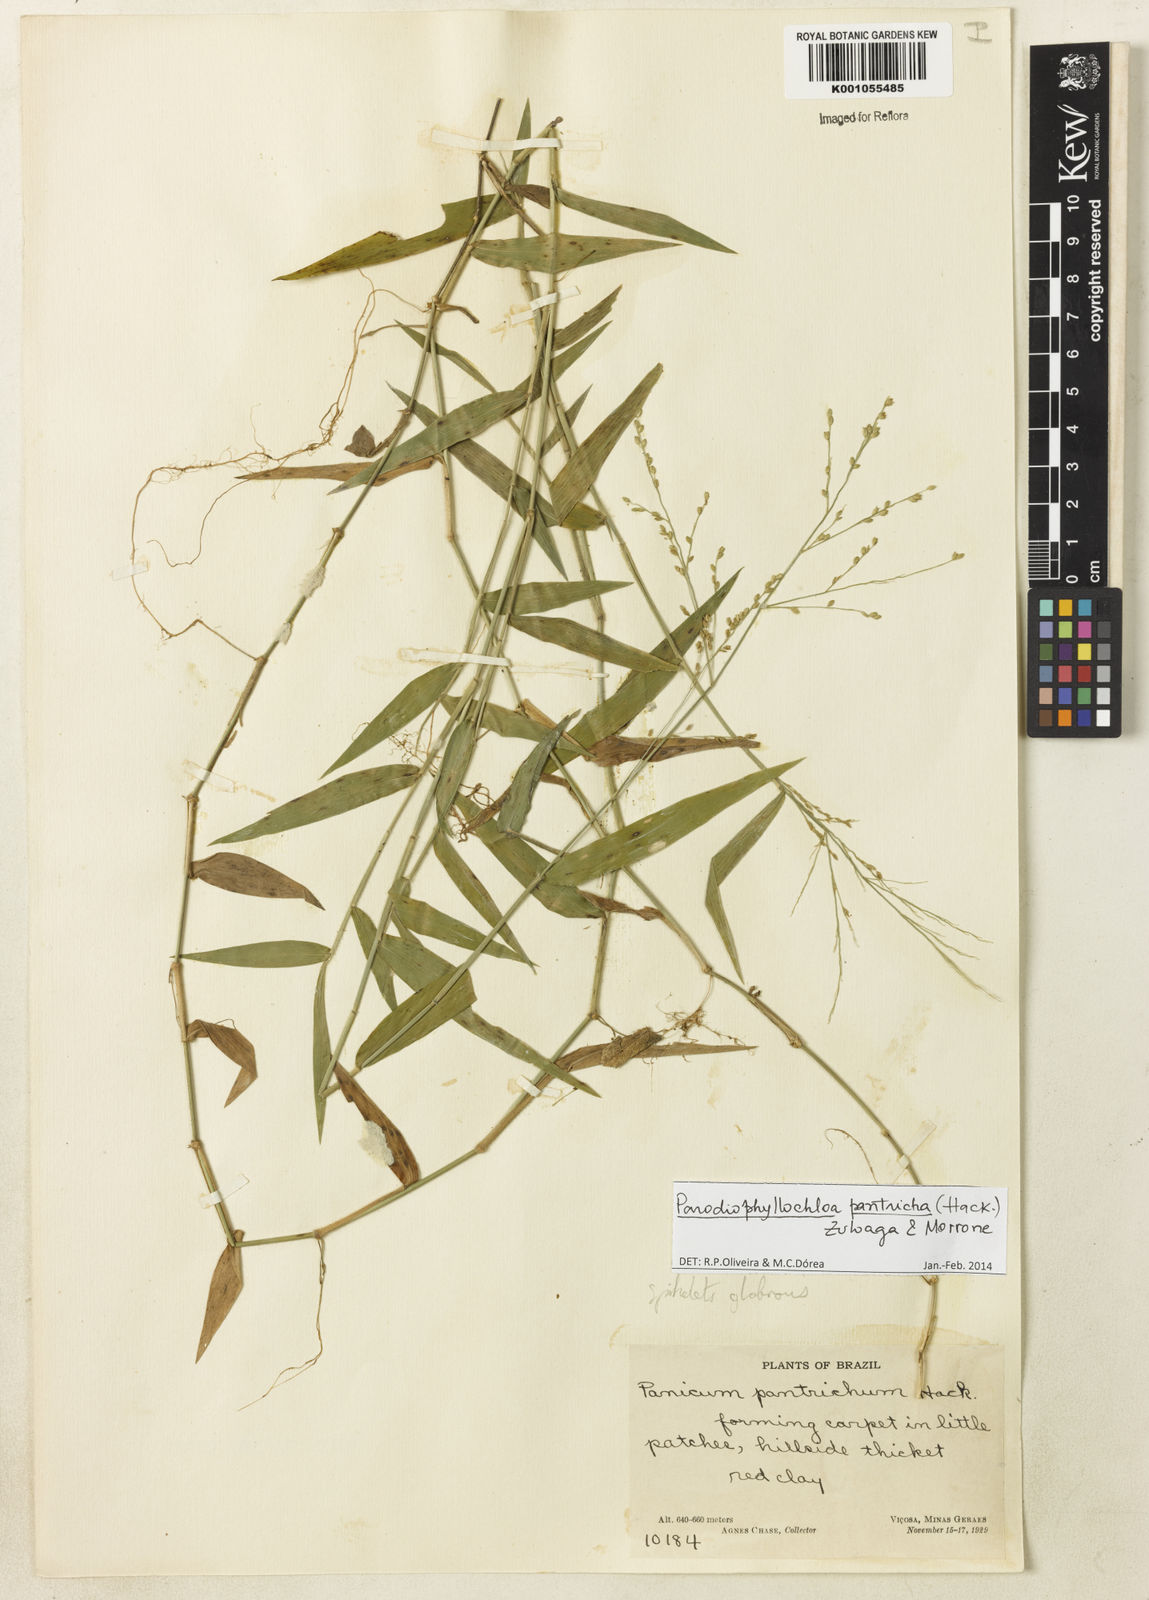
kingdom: Plantae
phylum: Tracheophyta
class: Liliopsida
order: Poales
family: Poaceae
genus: Parodiophyllochloa
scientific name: Parodiophyllochloa pantricha
